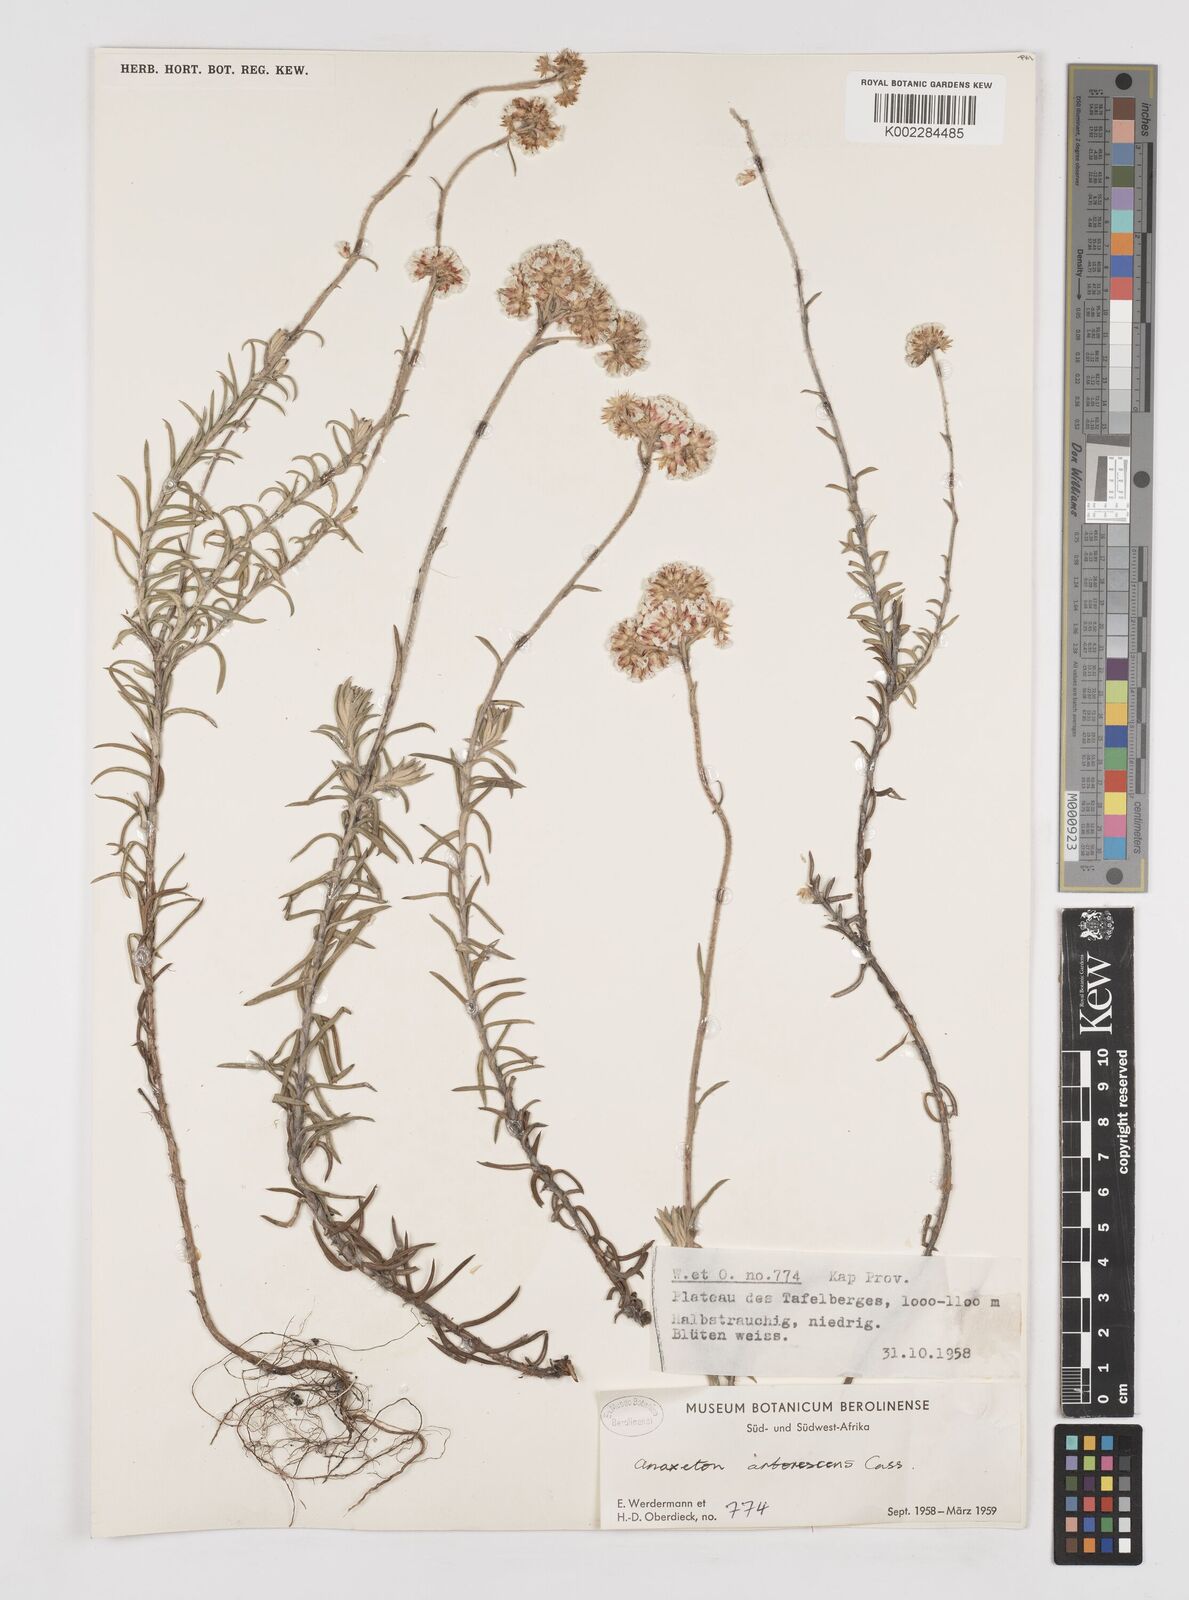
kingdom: Plantae
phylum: Tracheophyta
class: Magnoliopsida
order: Asterales
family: Asteraceae
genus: Anaxeton
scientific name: Anaxeton arborescens
